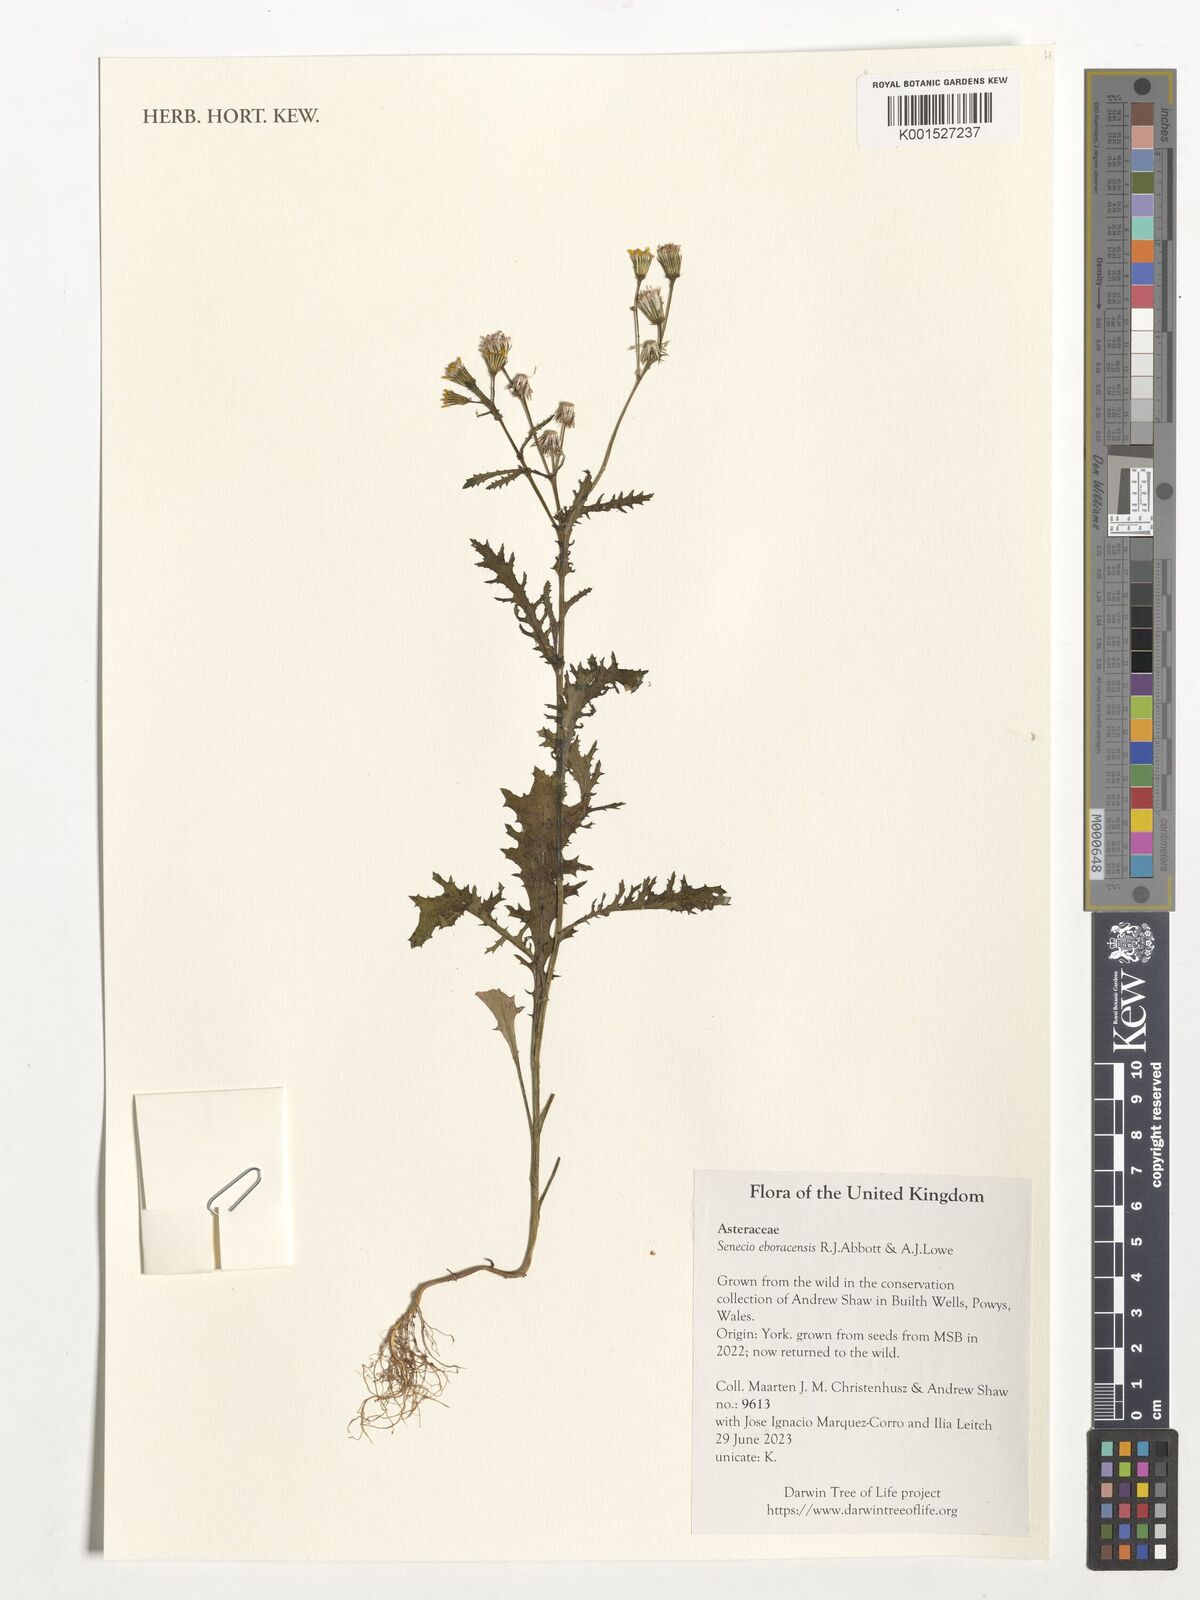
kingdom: Plantae
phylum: Tracheophyta
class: Magnoliopsida
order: Asterales
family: Asteraceae
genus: Senecio
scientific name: Senecio eboracensis
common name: York groundsel
